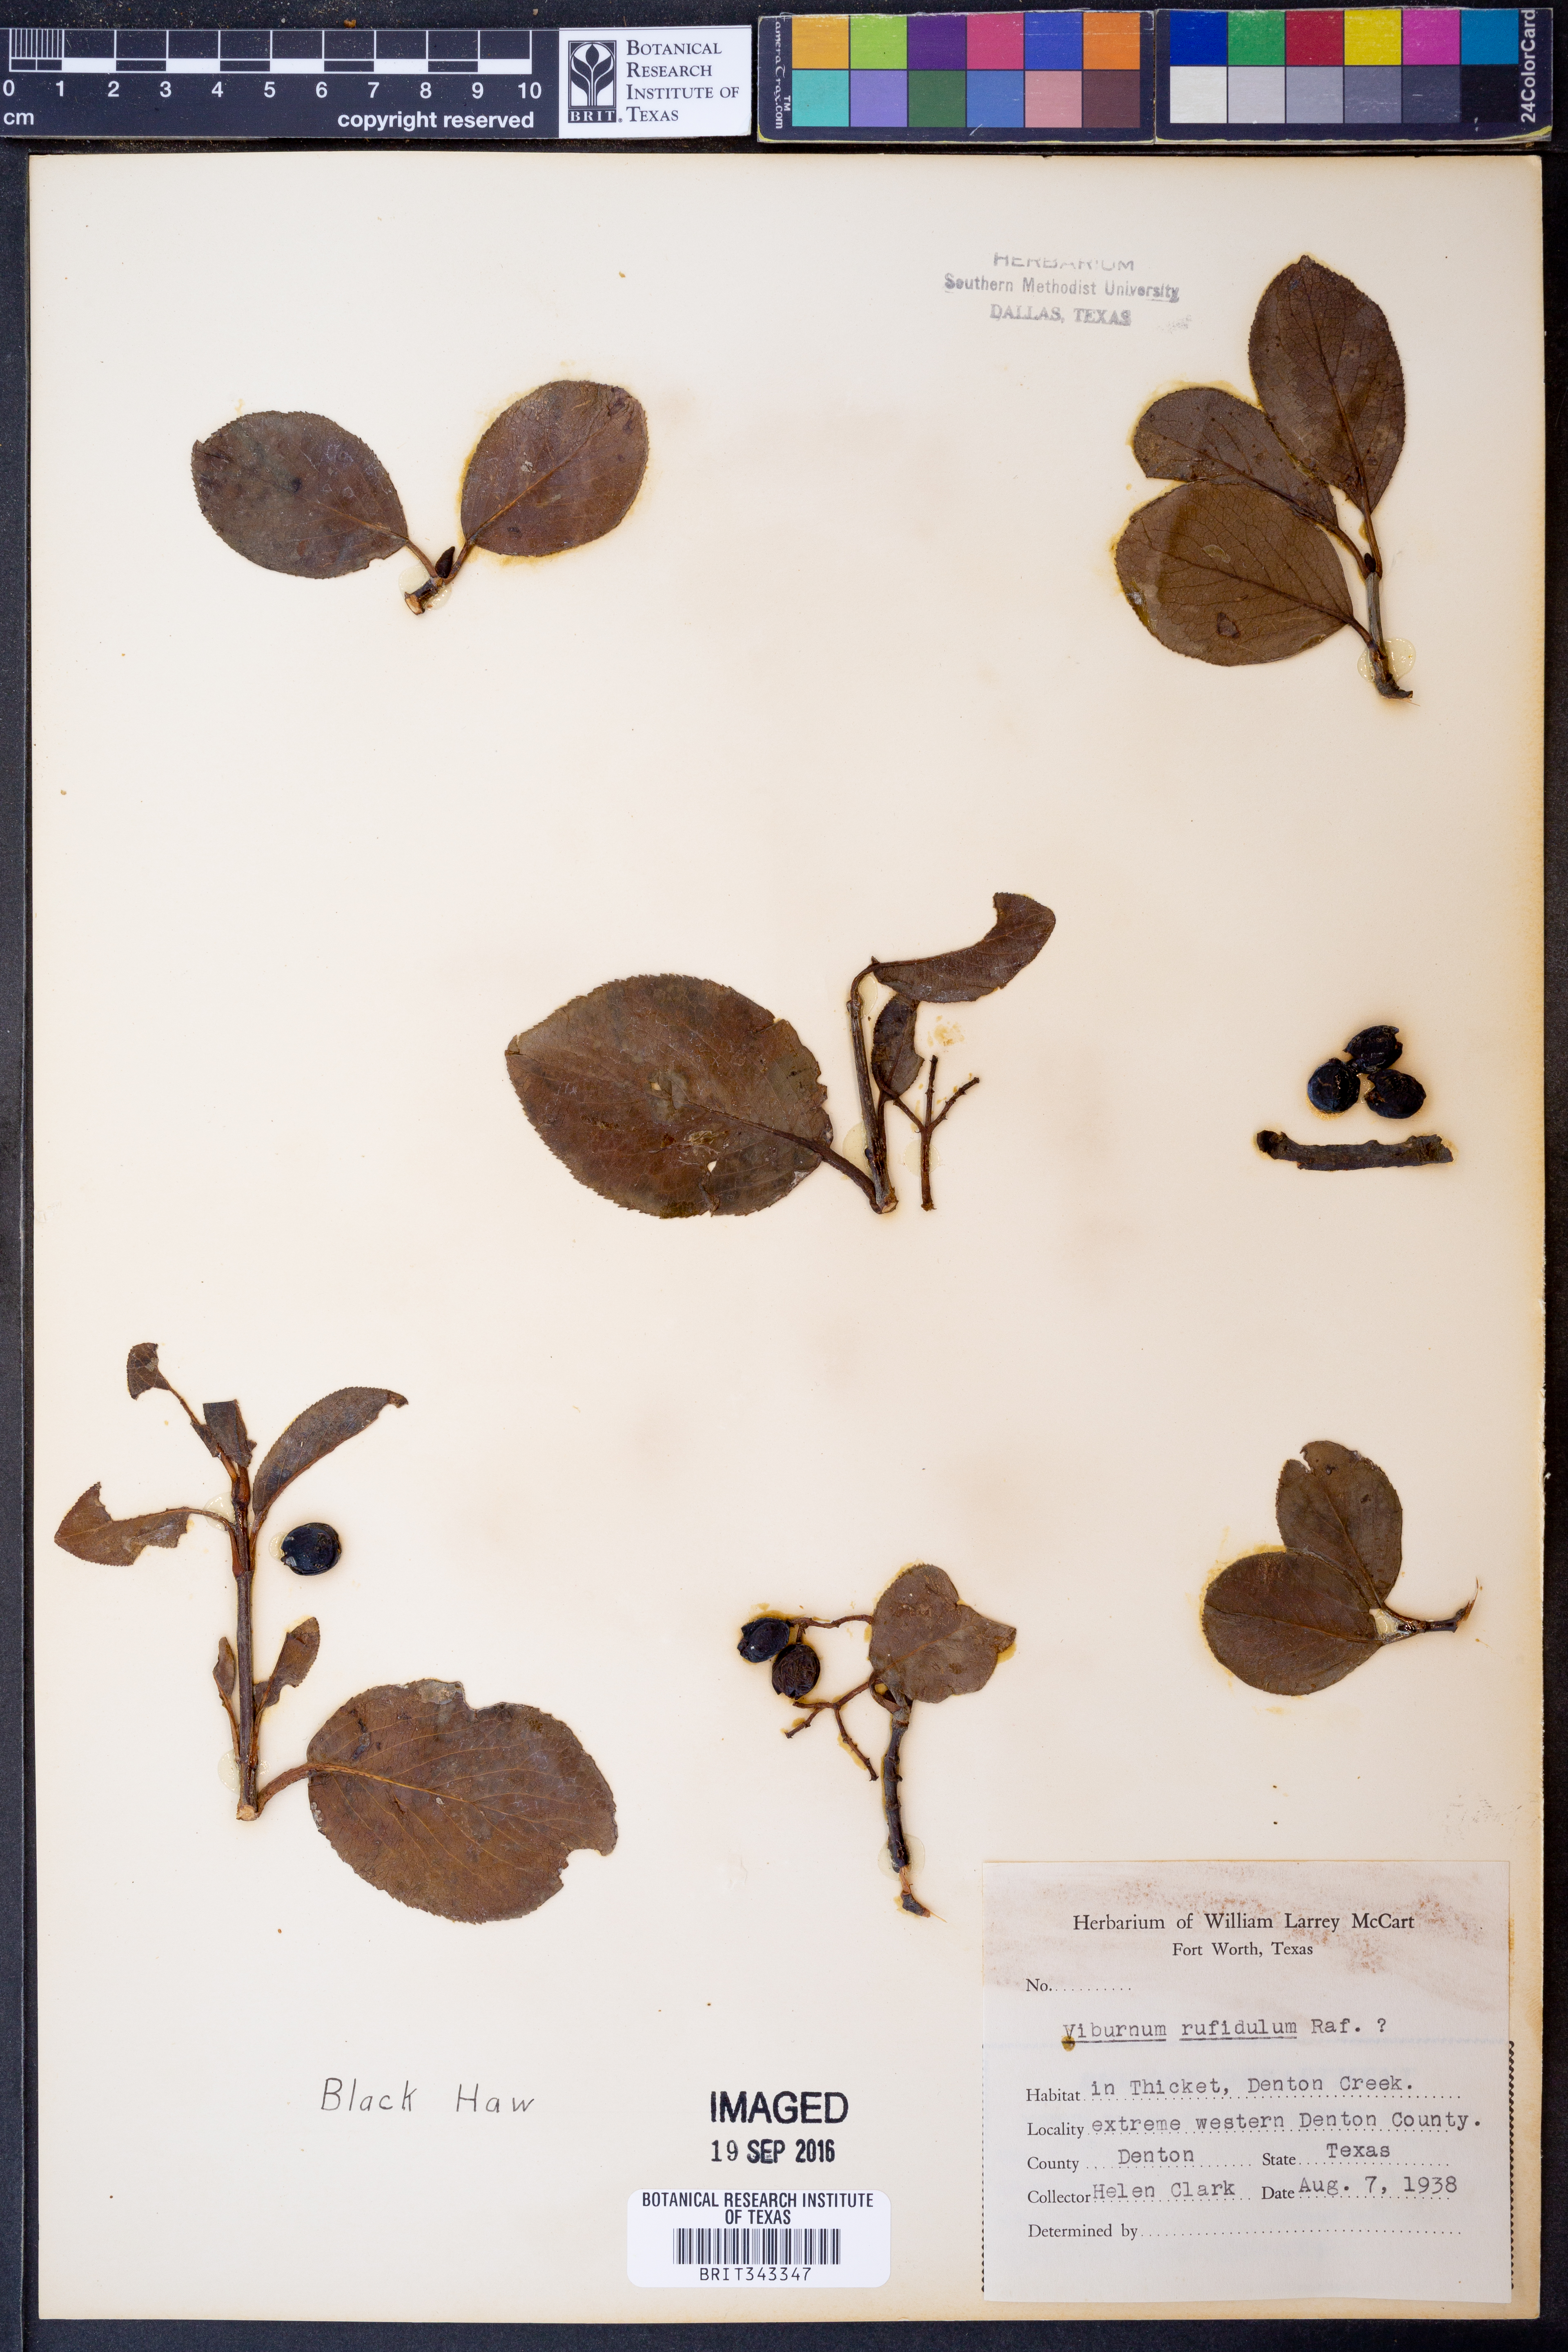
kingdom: Plantae
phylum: Tracheophyta
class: Magnoliopsida
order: Dipsacales
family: Viburnaceae
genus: Viburnum
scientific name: Viburnum rufidulum
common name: Blue haw
